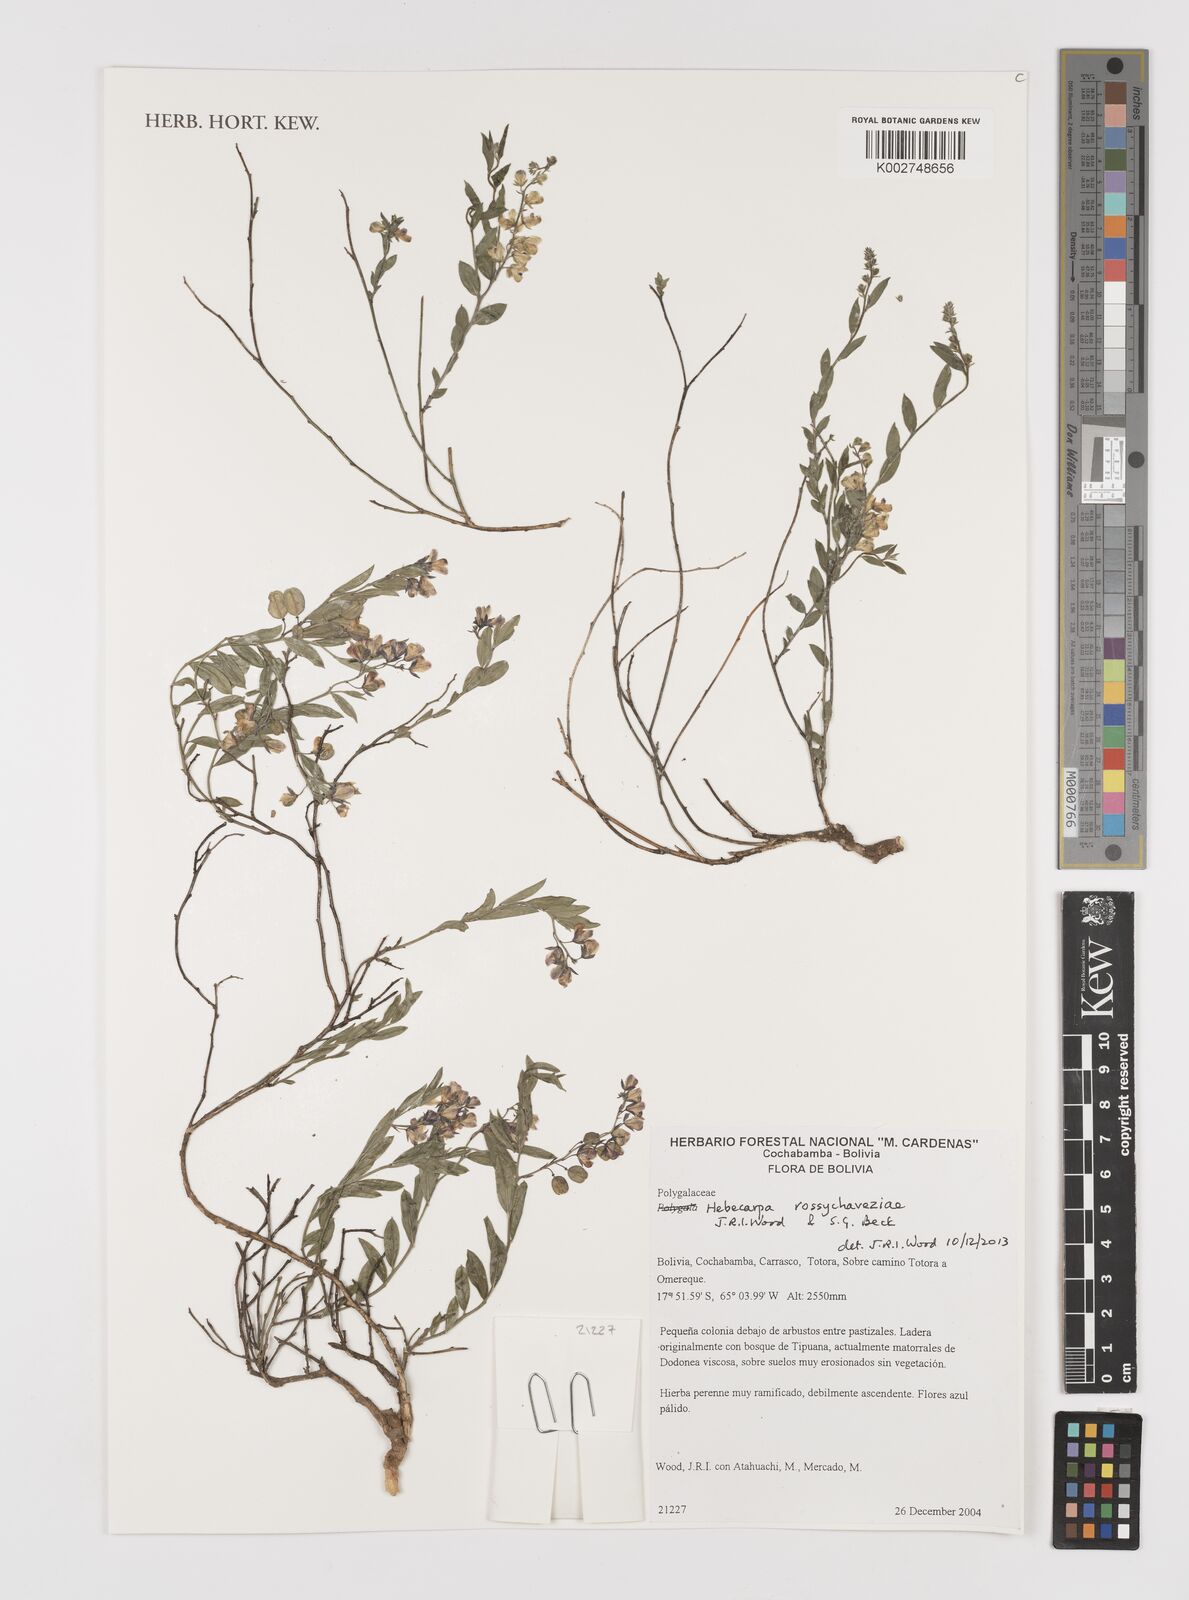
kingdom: Plantae
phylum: Tracheophyta
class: Magnoliopsida
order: Fabales
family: Polygalaceae
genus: Hebecarpa
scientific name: Hebecarpa rossychaveziae
